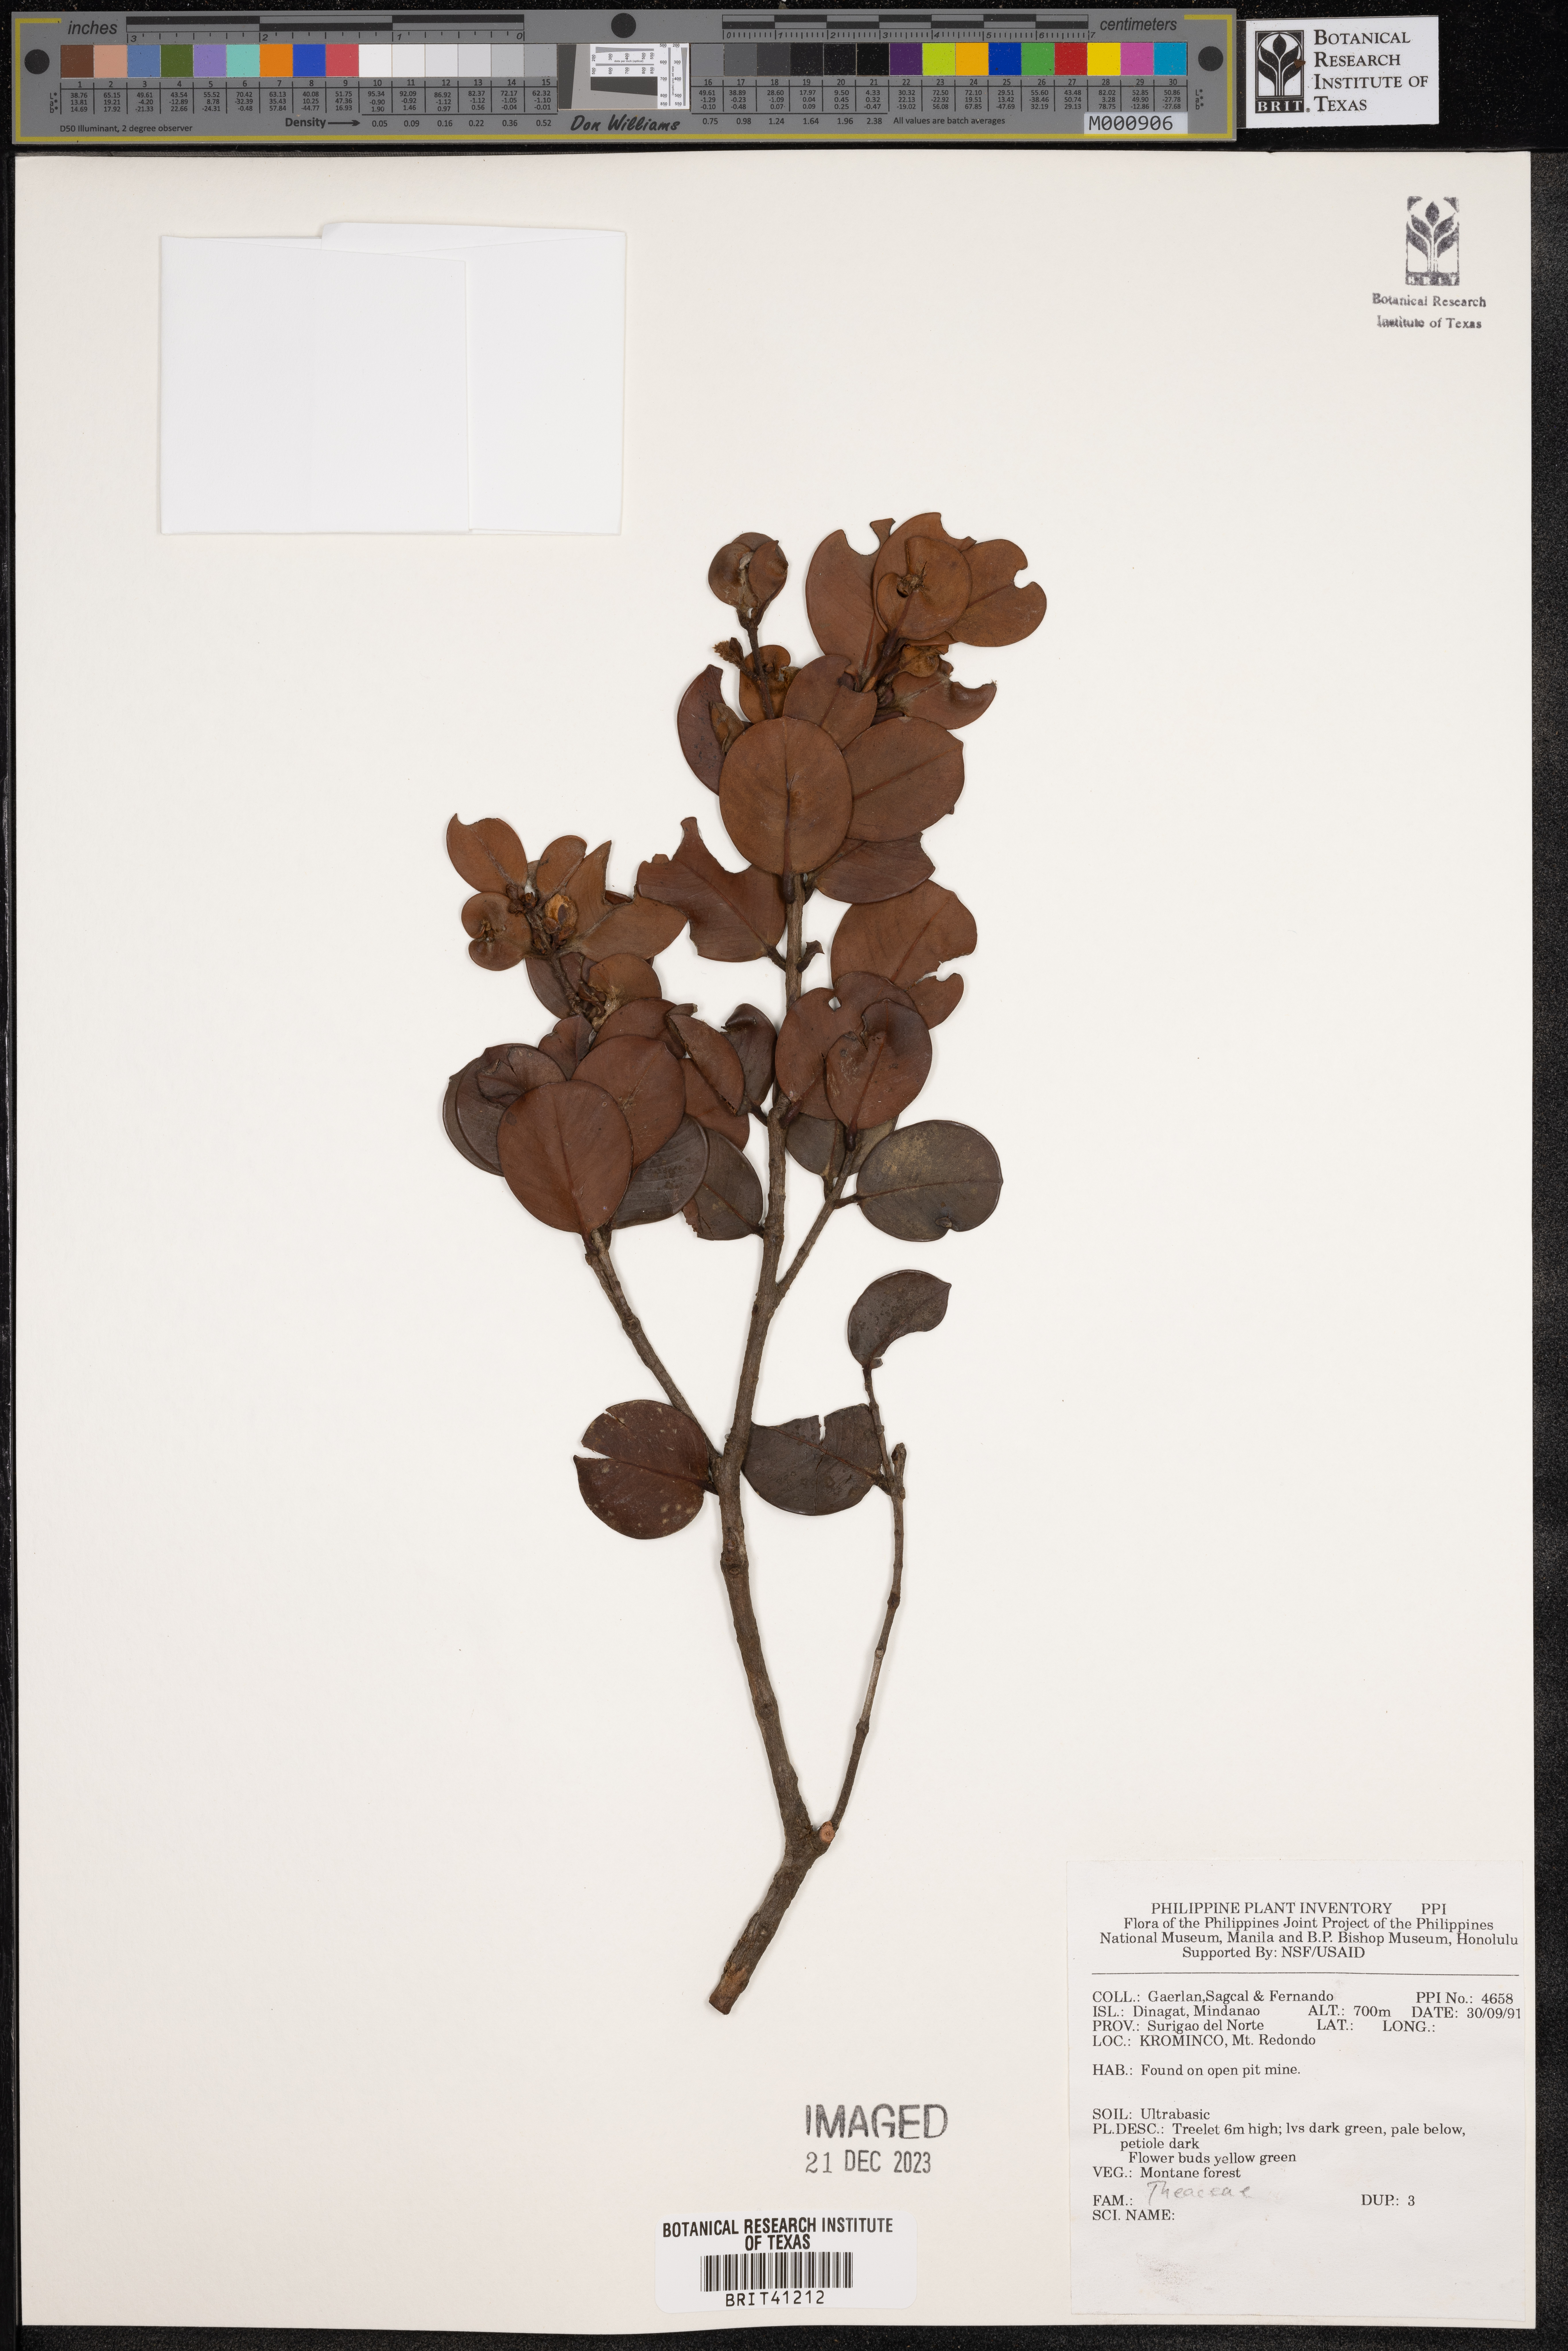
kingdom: Plantae
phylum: Tracheophyta
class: Magnoliopsida
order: Ericales
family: Theaceae
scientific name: Theaceae
